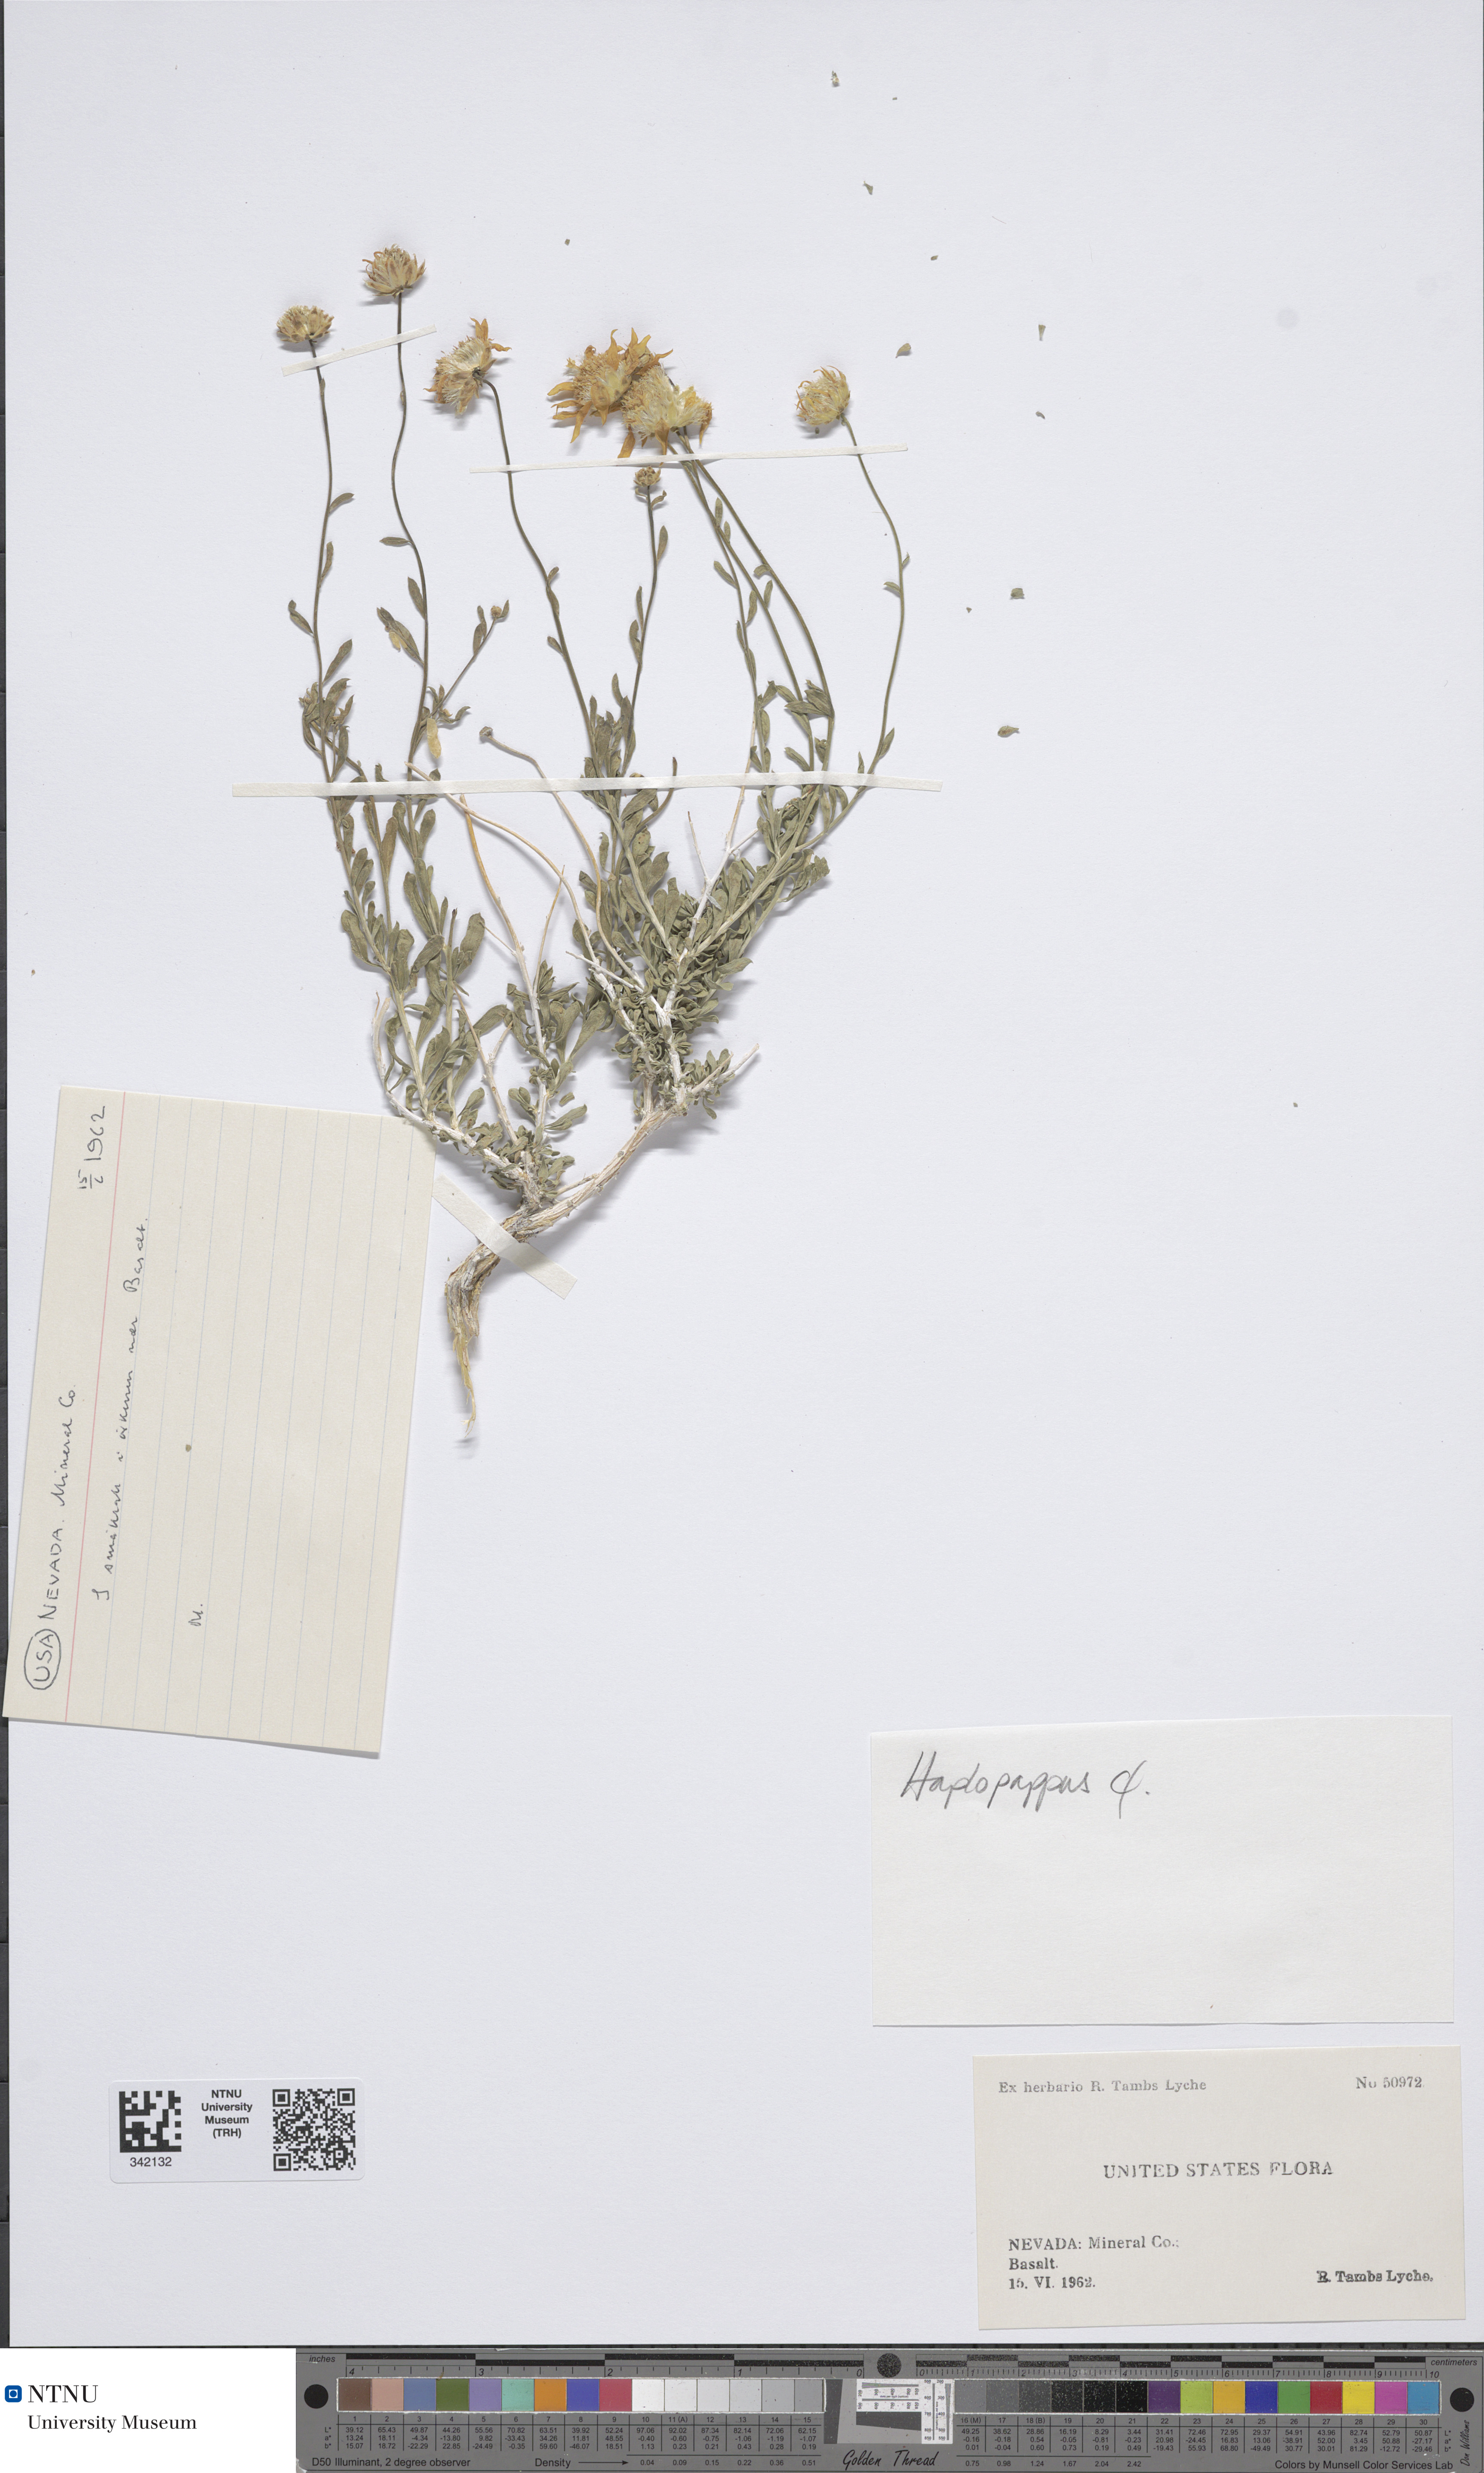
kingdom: Plantae
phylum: Tracheophyta
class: Magnoliopsida
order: Asterales
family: Asteraceae
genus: Haplopappus
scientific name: Haplopappus
